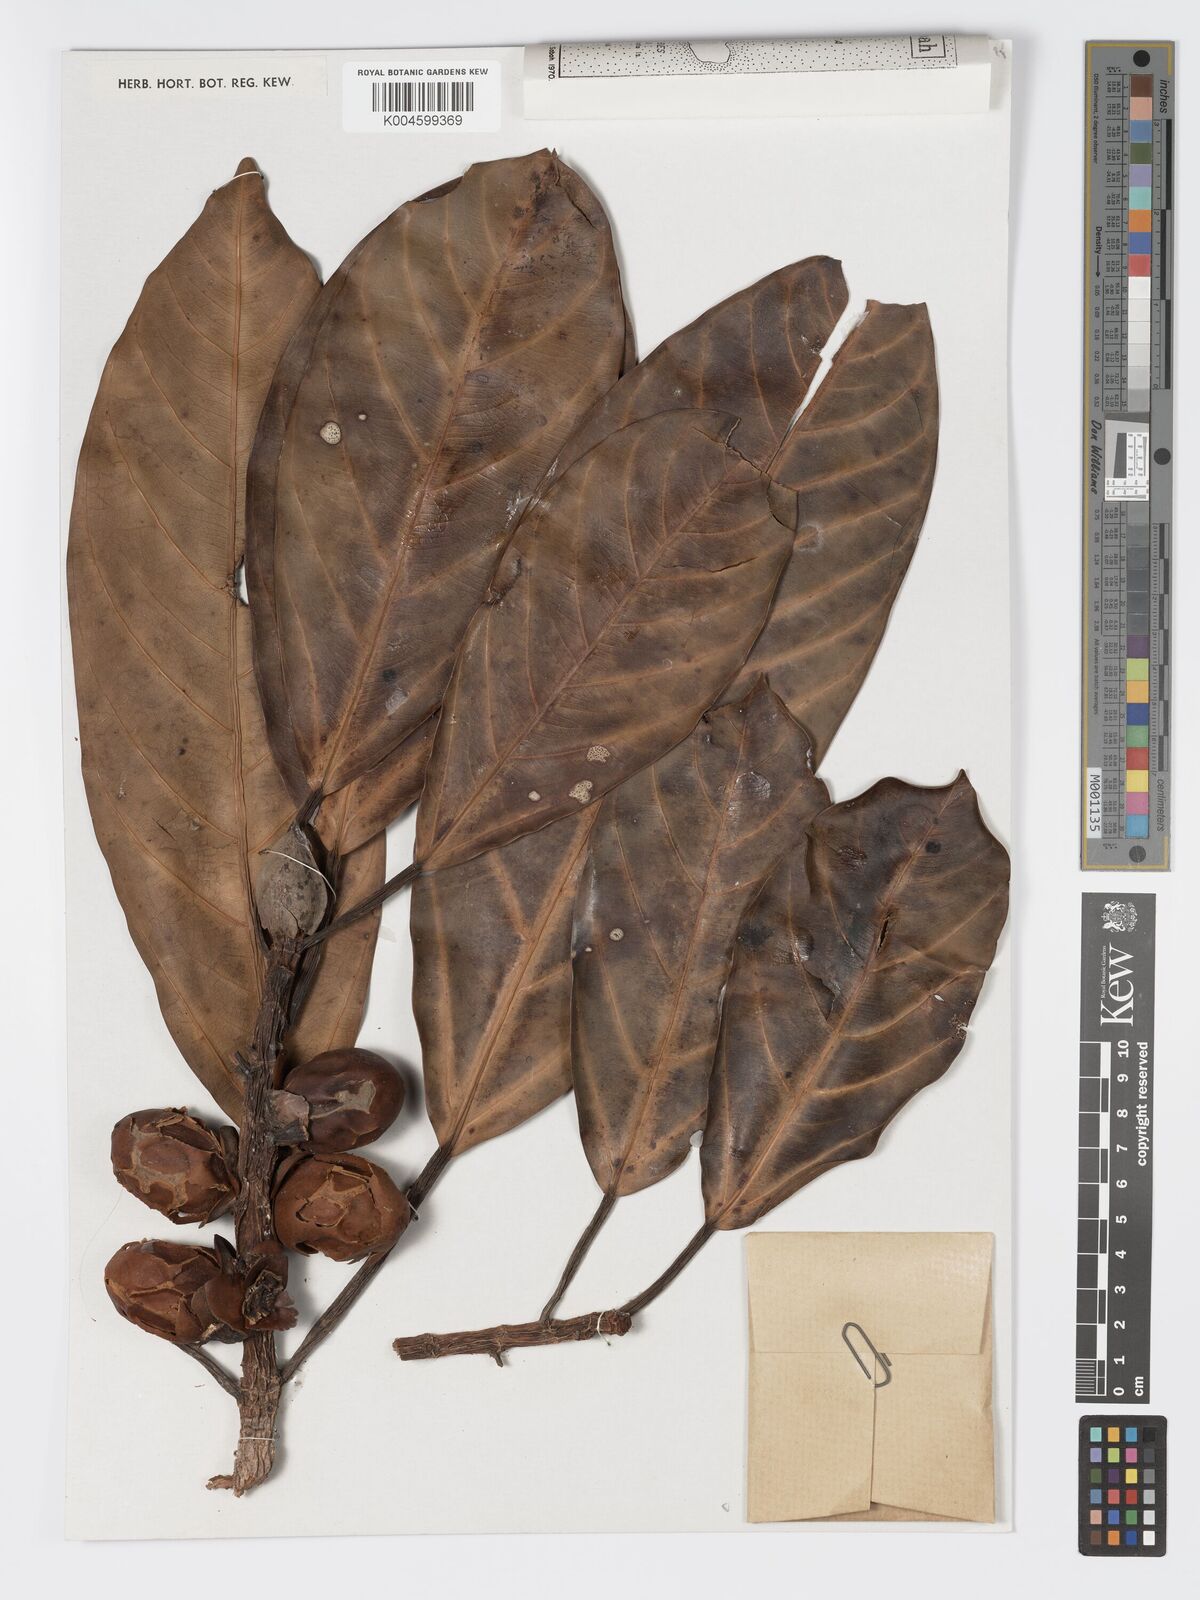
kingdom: Plantae
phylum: Tracheophyta
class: Magnoliopsida
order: Rosales
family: Moraceae
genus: Ficus
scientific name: Ficus xylophylla
